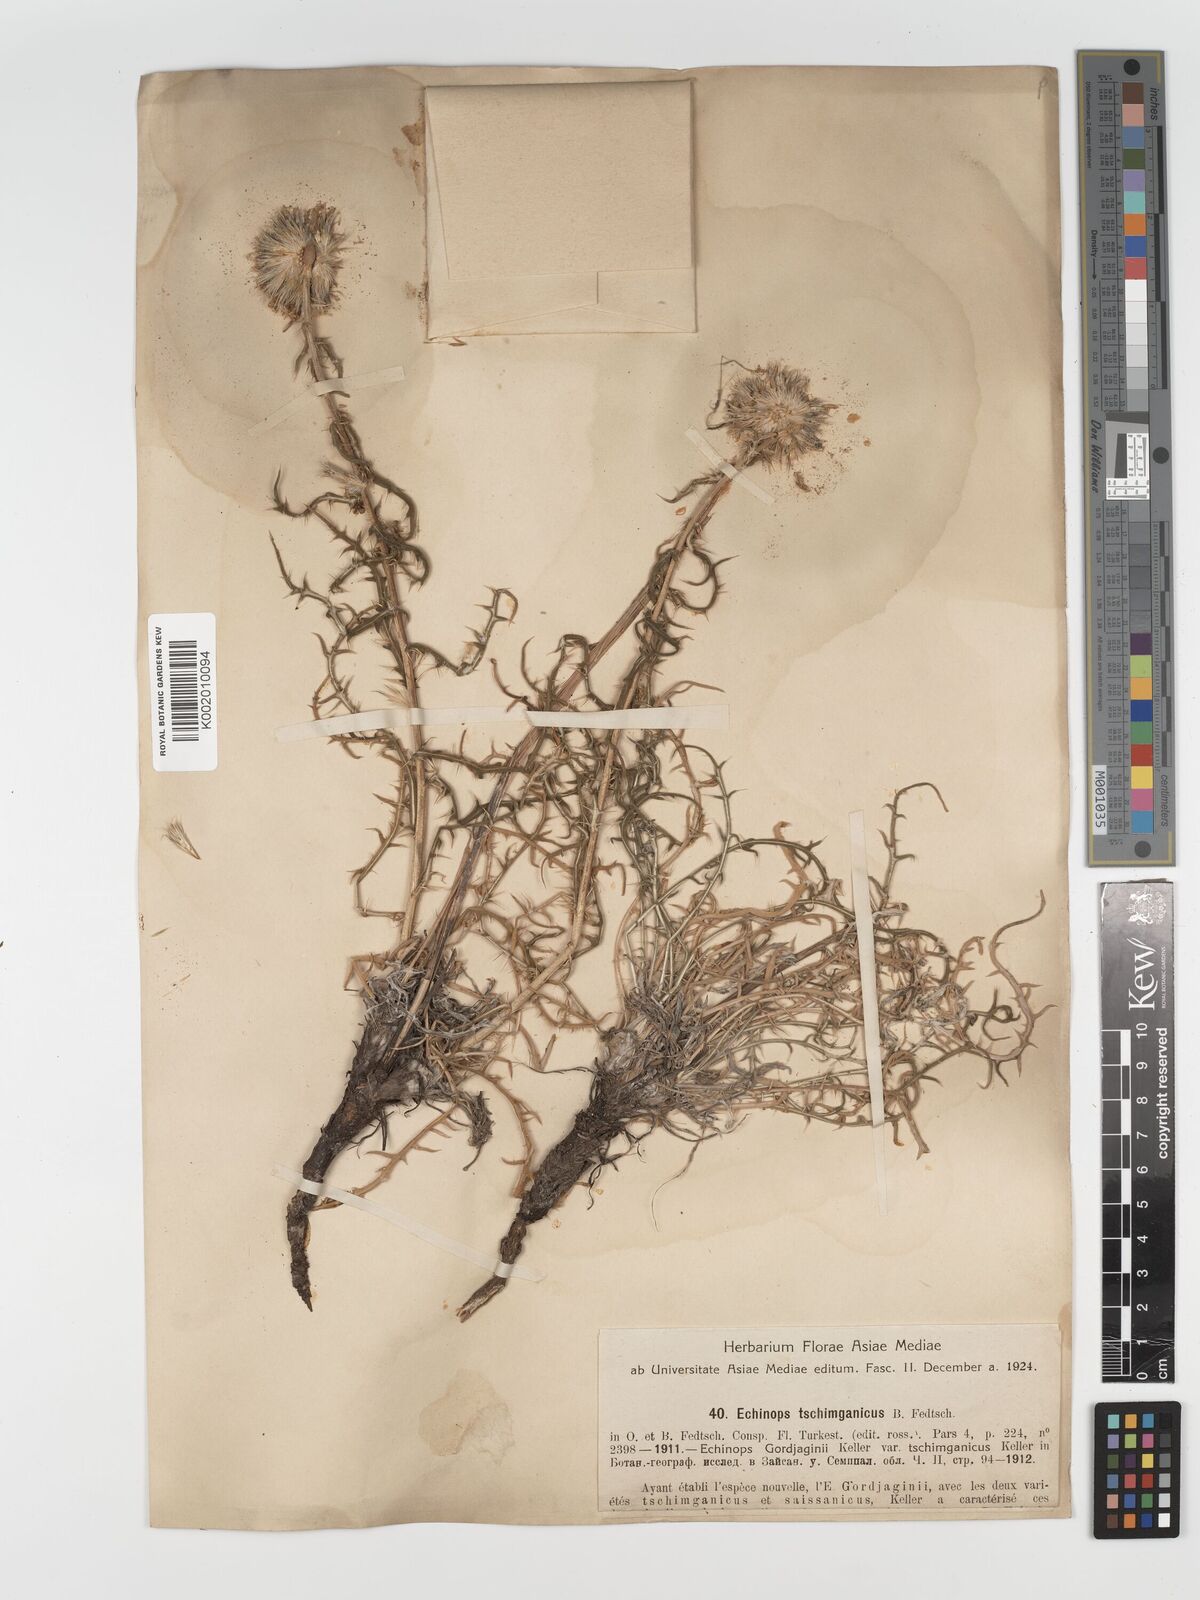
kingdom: Plantae
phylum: Tracheophyta
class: Magnoliopsida
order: Asterales
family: Asteraceae
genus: Echinops
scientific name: Echinops tschimganicus
